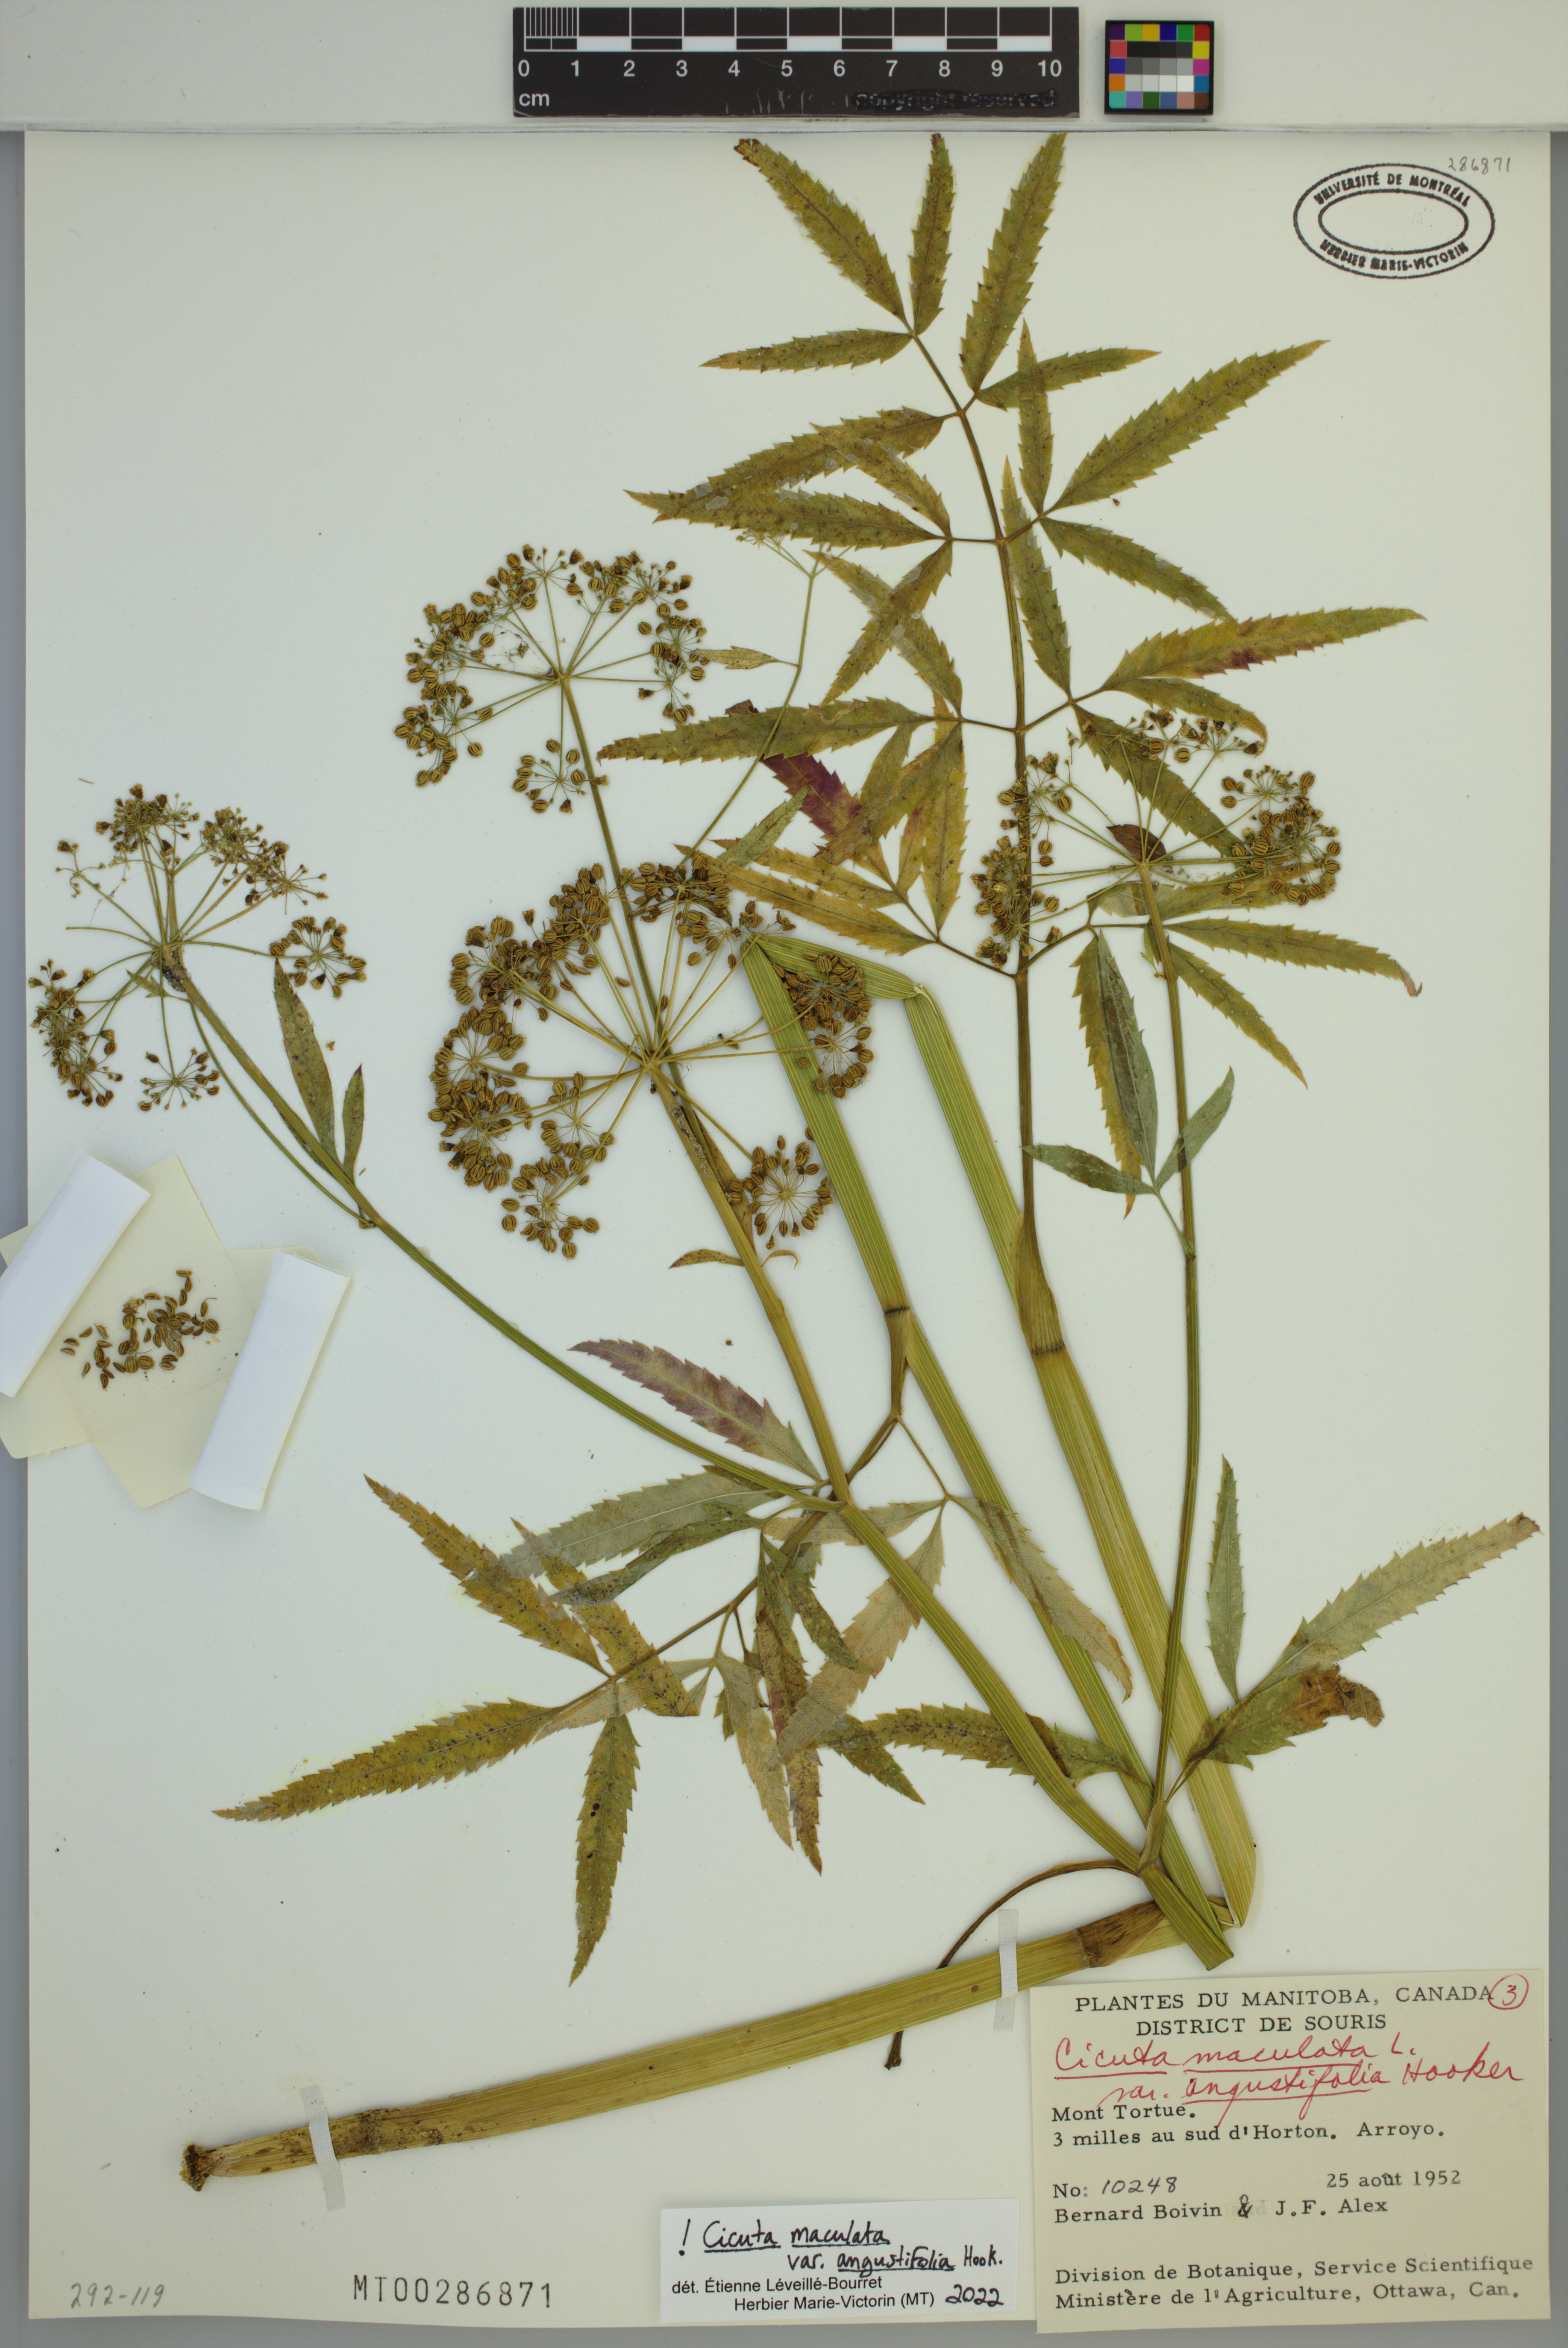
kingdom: Plantae
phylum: Tracheophyta
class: Magnoliopsida
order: Apiales
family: Apiaceae
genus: Cicuta
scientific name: Cicuta maculata
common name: Spotted cowbane
